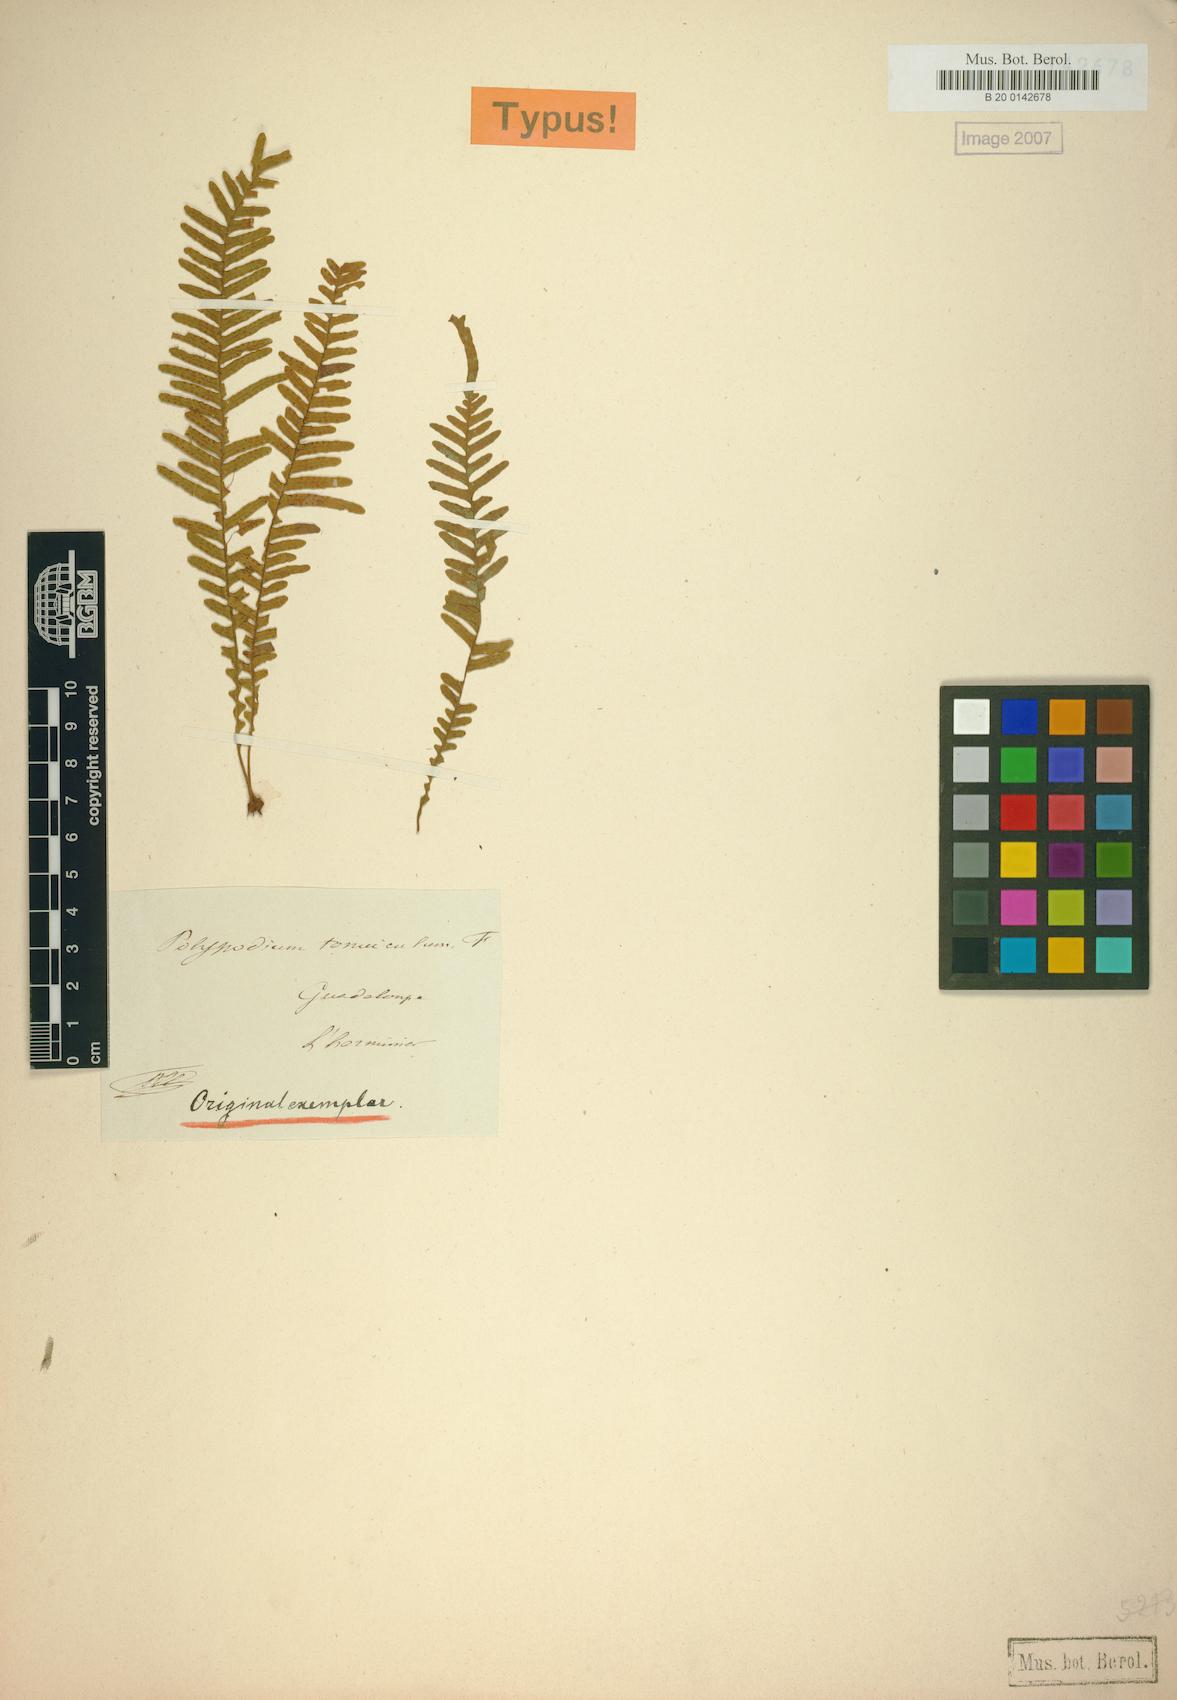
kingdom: Plantae
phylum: Tracheophyta
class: Polypodiopsida
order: Polypodiales
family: Polypodiaceae
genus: Lellingeria
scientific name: Lellingeria tenuicula
